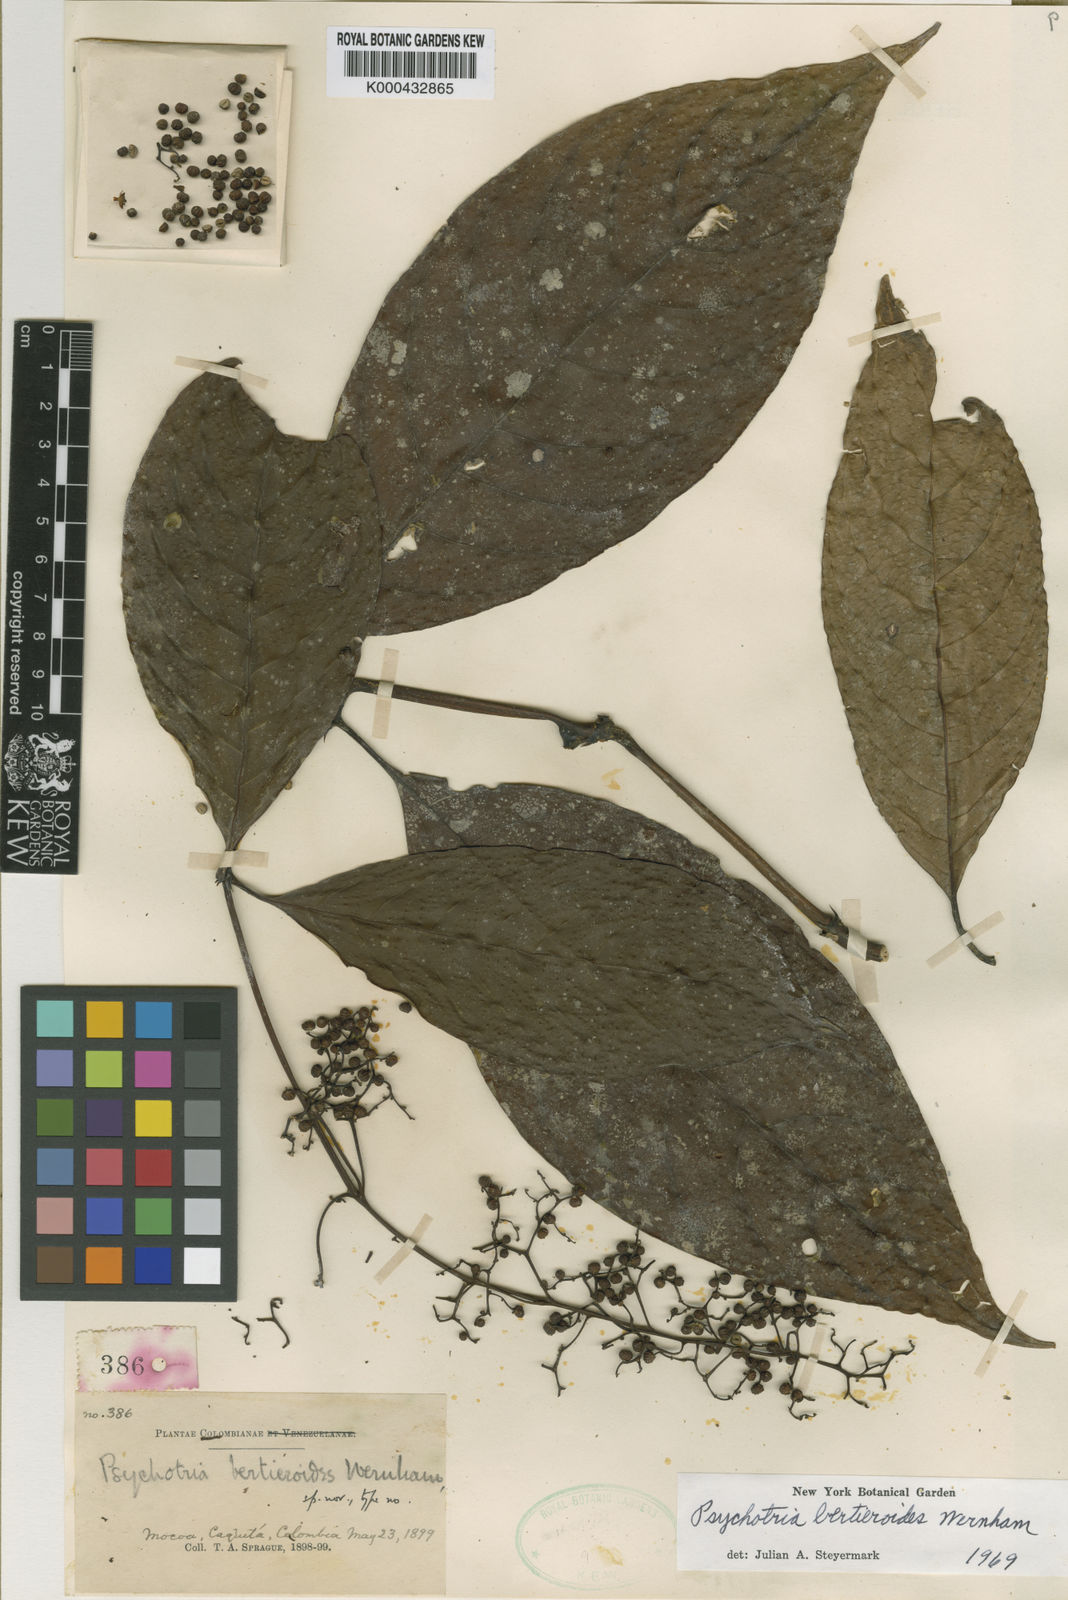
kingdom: Plantae
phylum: Tracheophyta
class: Magnoliopsida
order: Gentianales
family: Rubiaceae
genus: Palicourea
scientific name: Palicourea bertieroides
